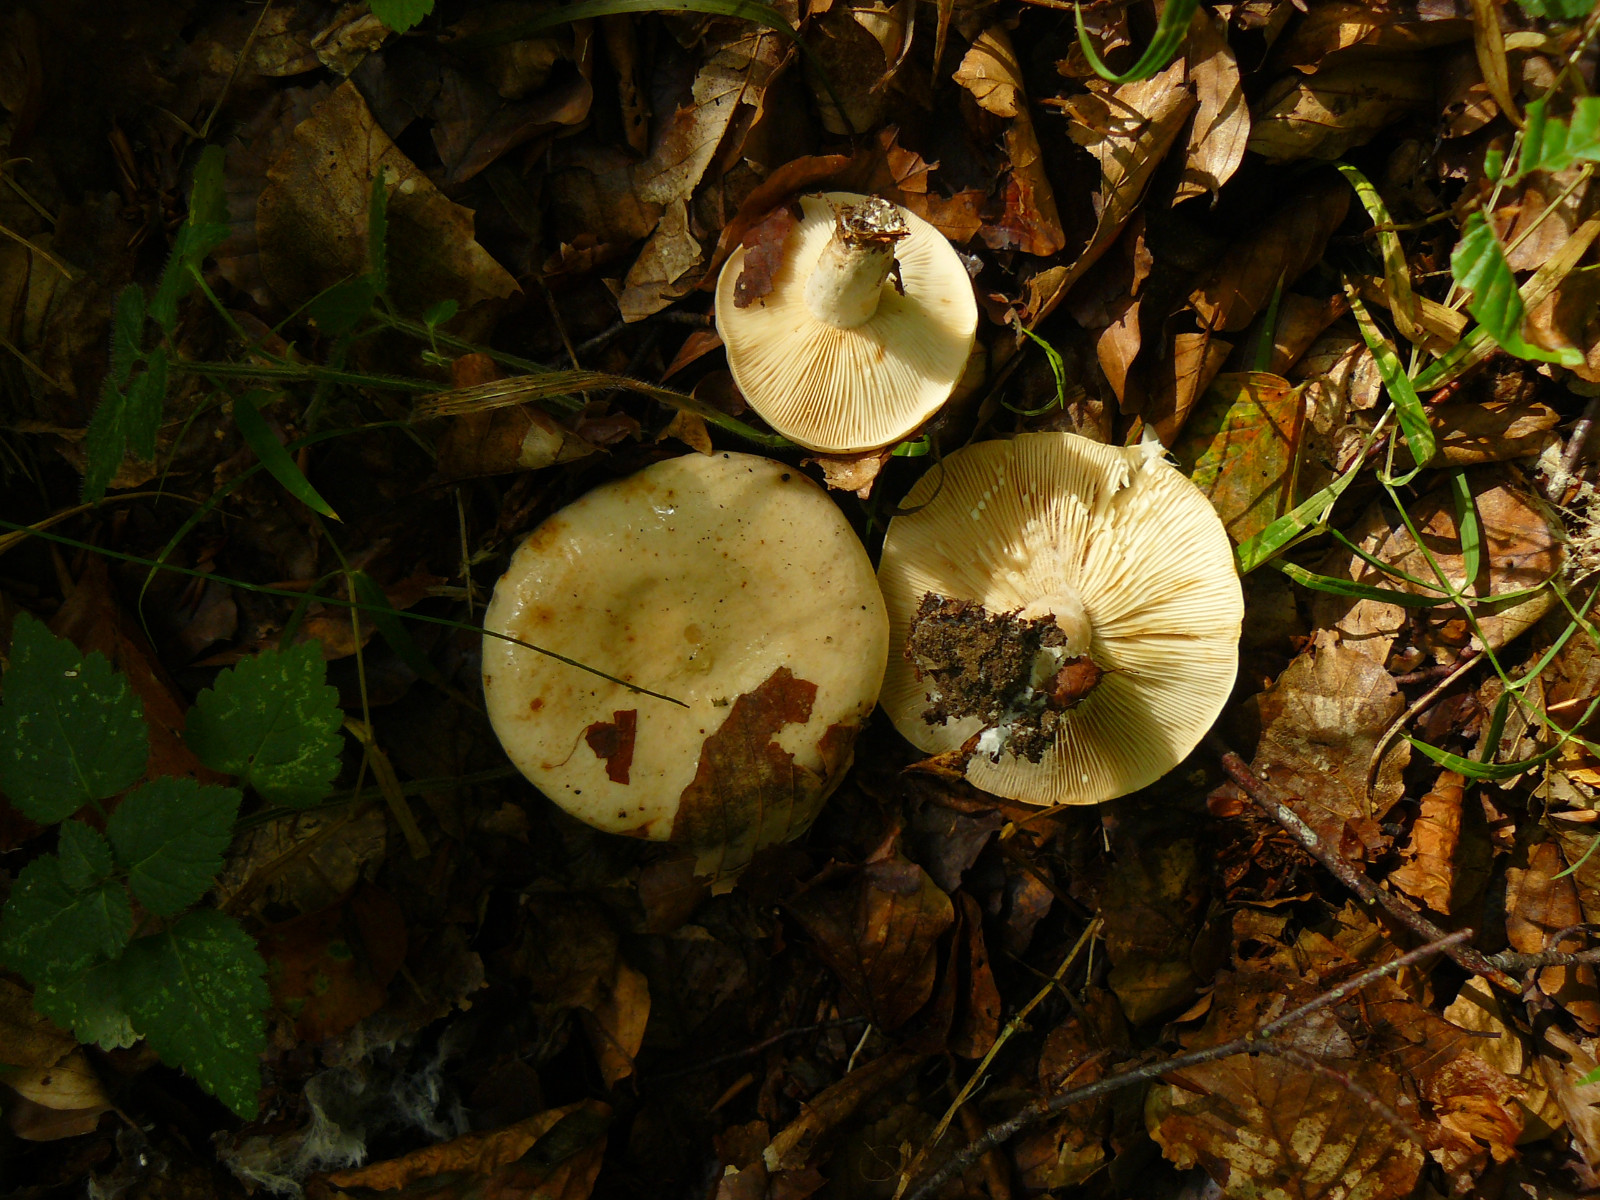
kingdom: Fungi
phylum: Basidiomycota
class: Agaricomycetes
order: Russulales
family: Russulaceae
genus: Lactarius
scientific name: Lactarius pallidus
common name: bleg mælkehat
